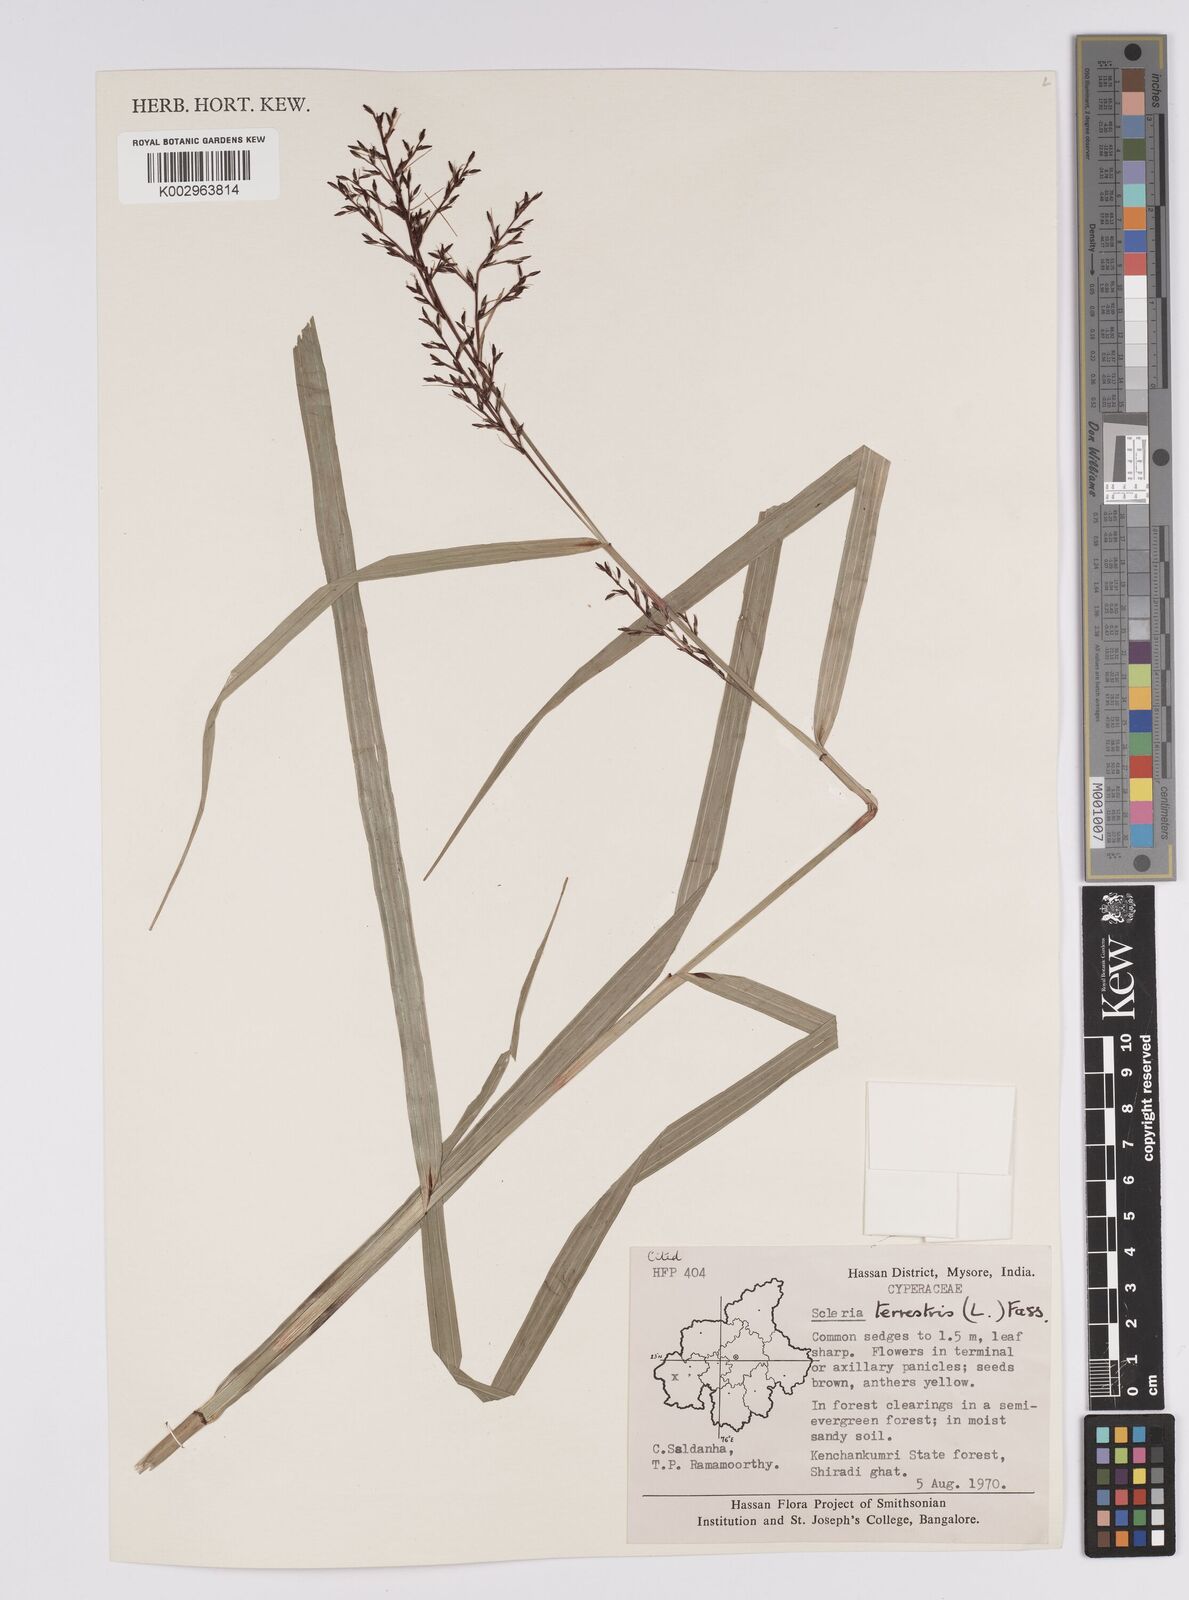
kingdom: Plantae
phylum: Tracheophyta
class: Liliopsida
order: Poales
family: Cyperaceae
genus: Scleria
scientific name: Scleria terrestris
